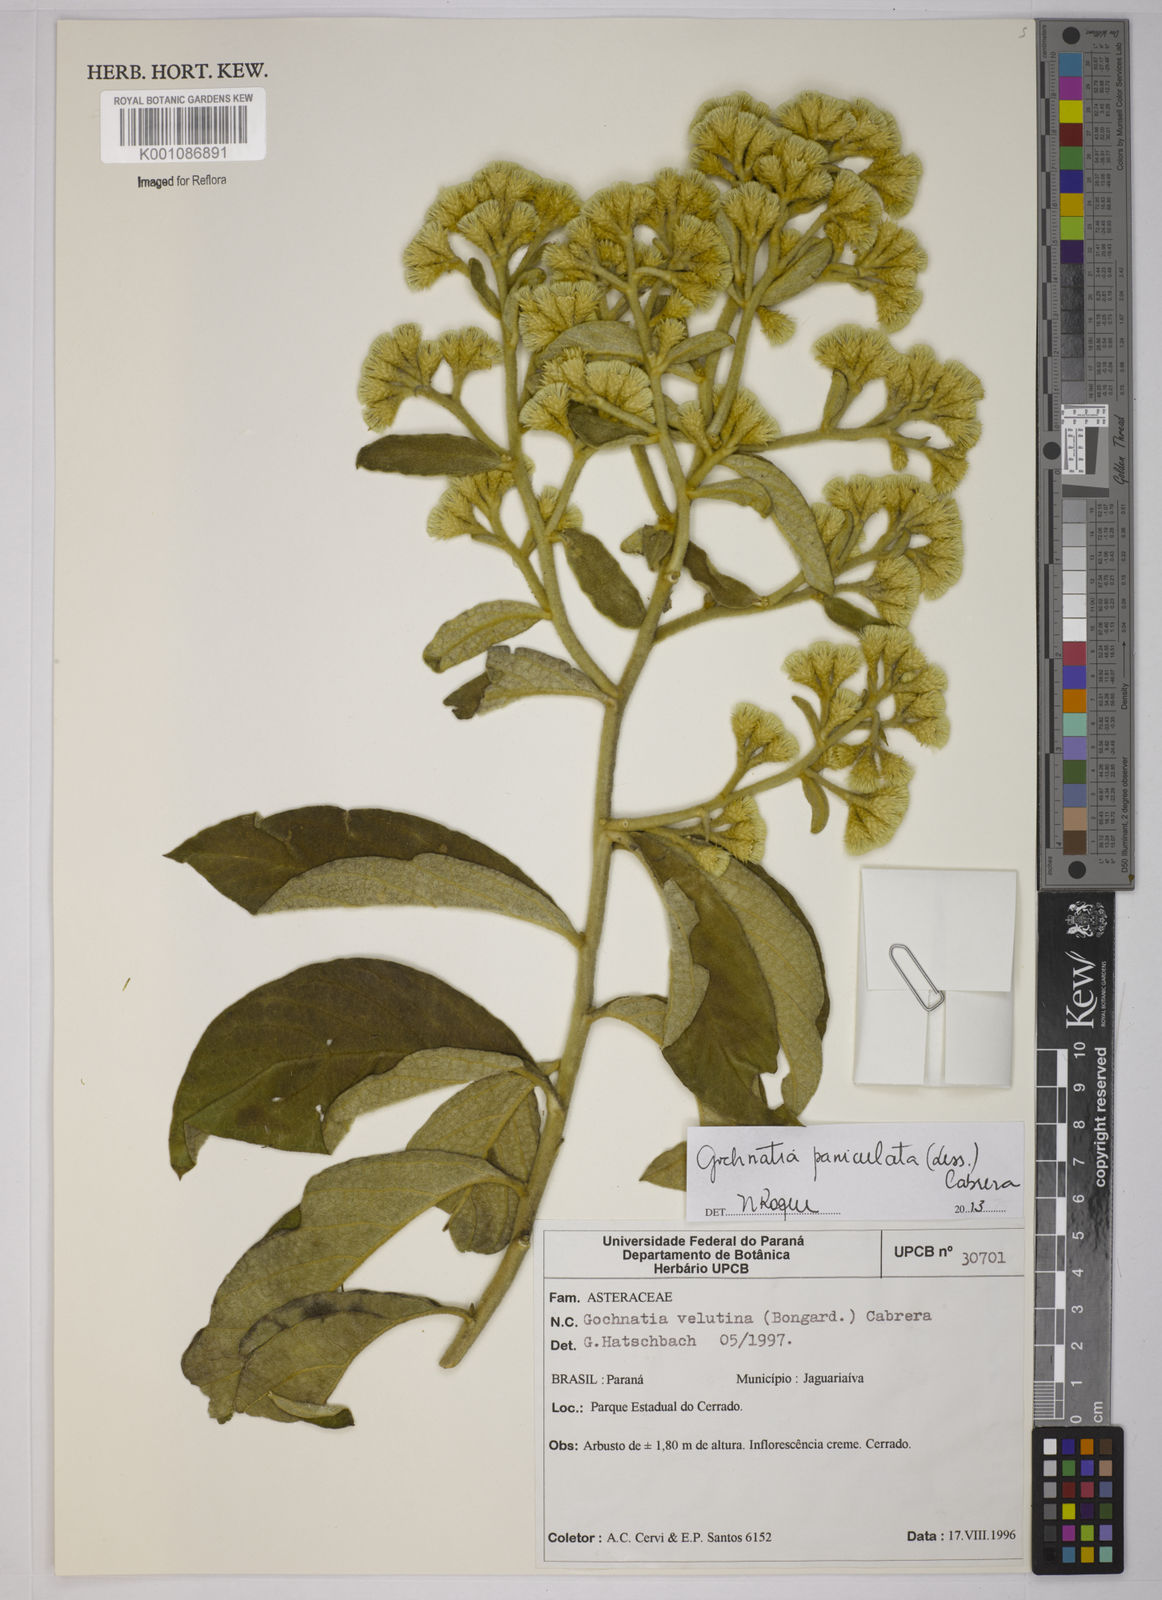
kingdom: Plantae
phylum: Tracheophyta
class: Magnoliopsida
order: Asterales
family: Asteraceae
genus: Moquiniastrum
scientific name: Moquiniastrum paniculatum
